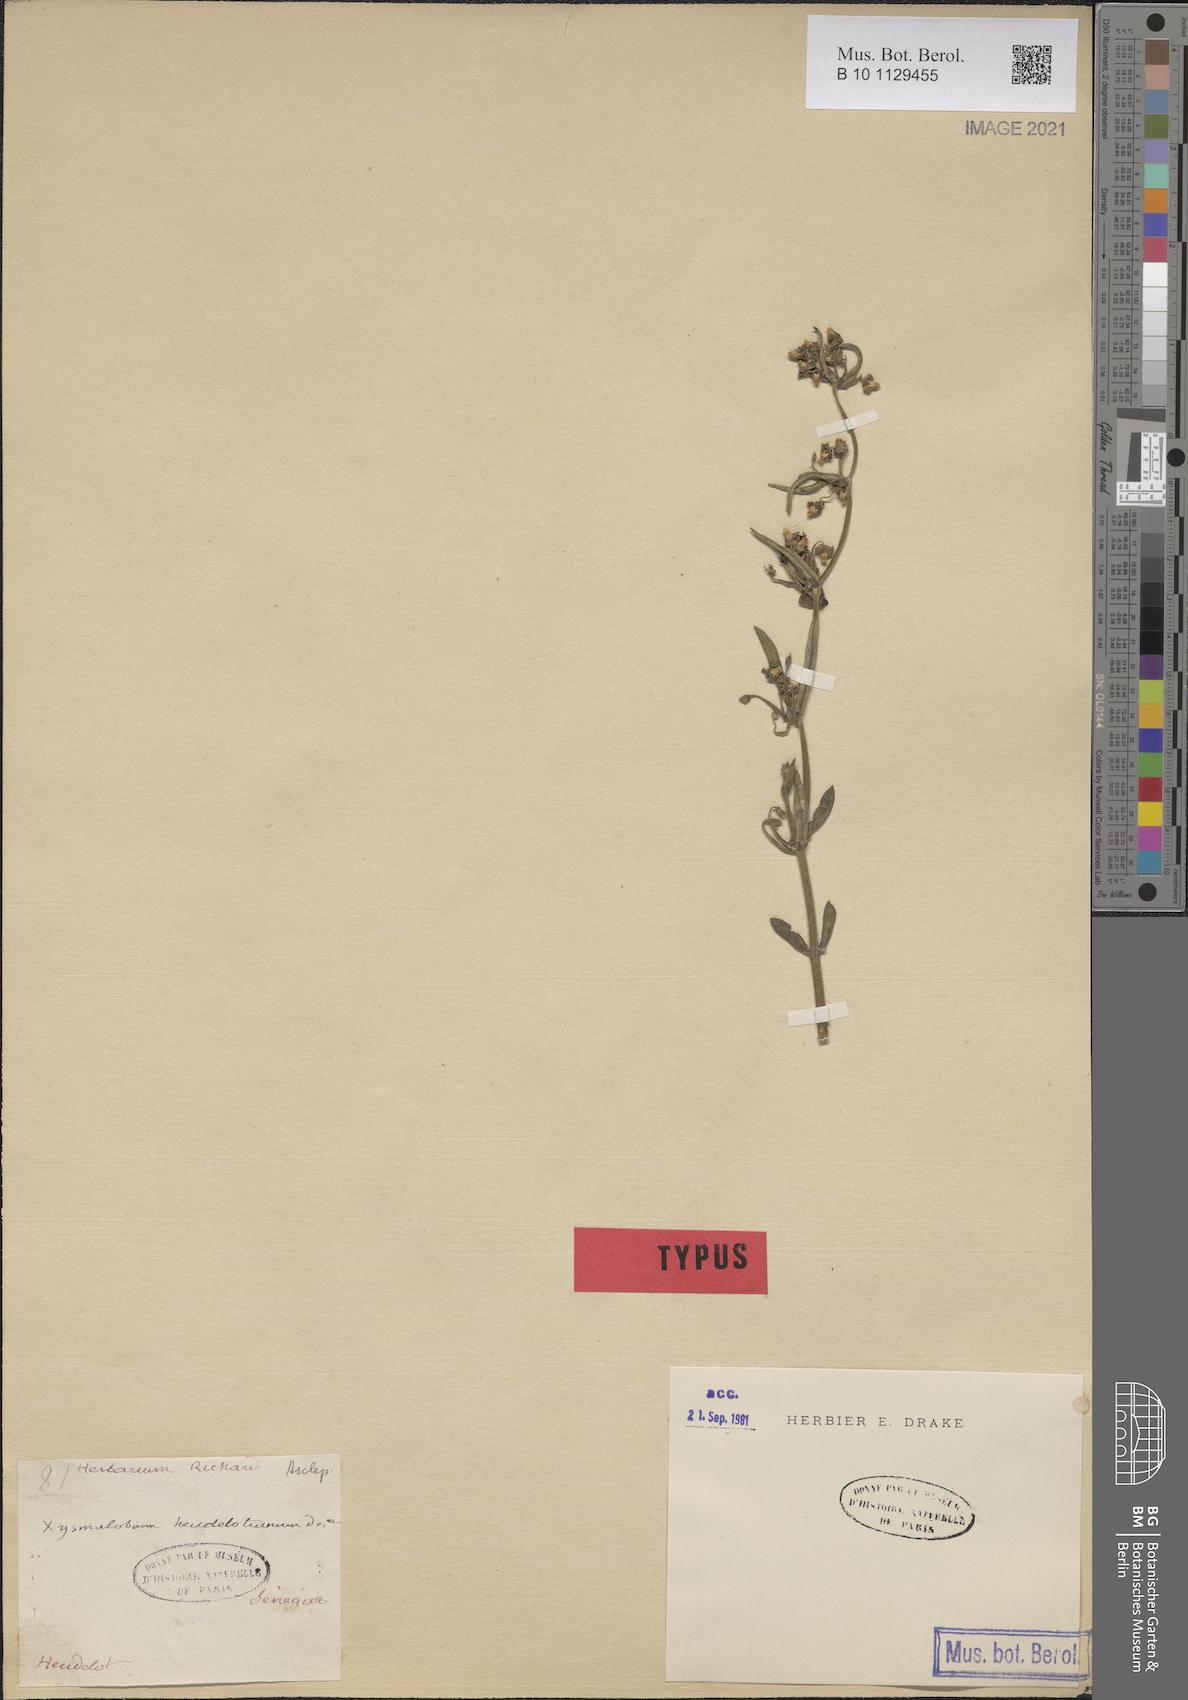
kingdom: Plantae
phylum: Tracheophyta
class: Magnoliopsida
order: Gentianales
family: Apocynaceae
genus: Xysmalobium
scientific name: Xysmalobium heudelotianum
